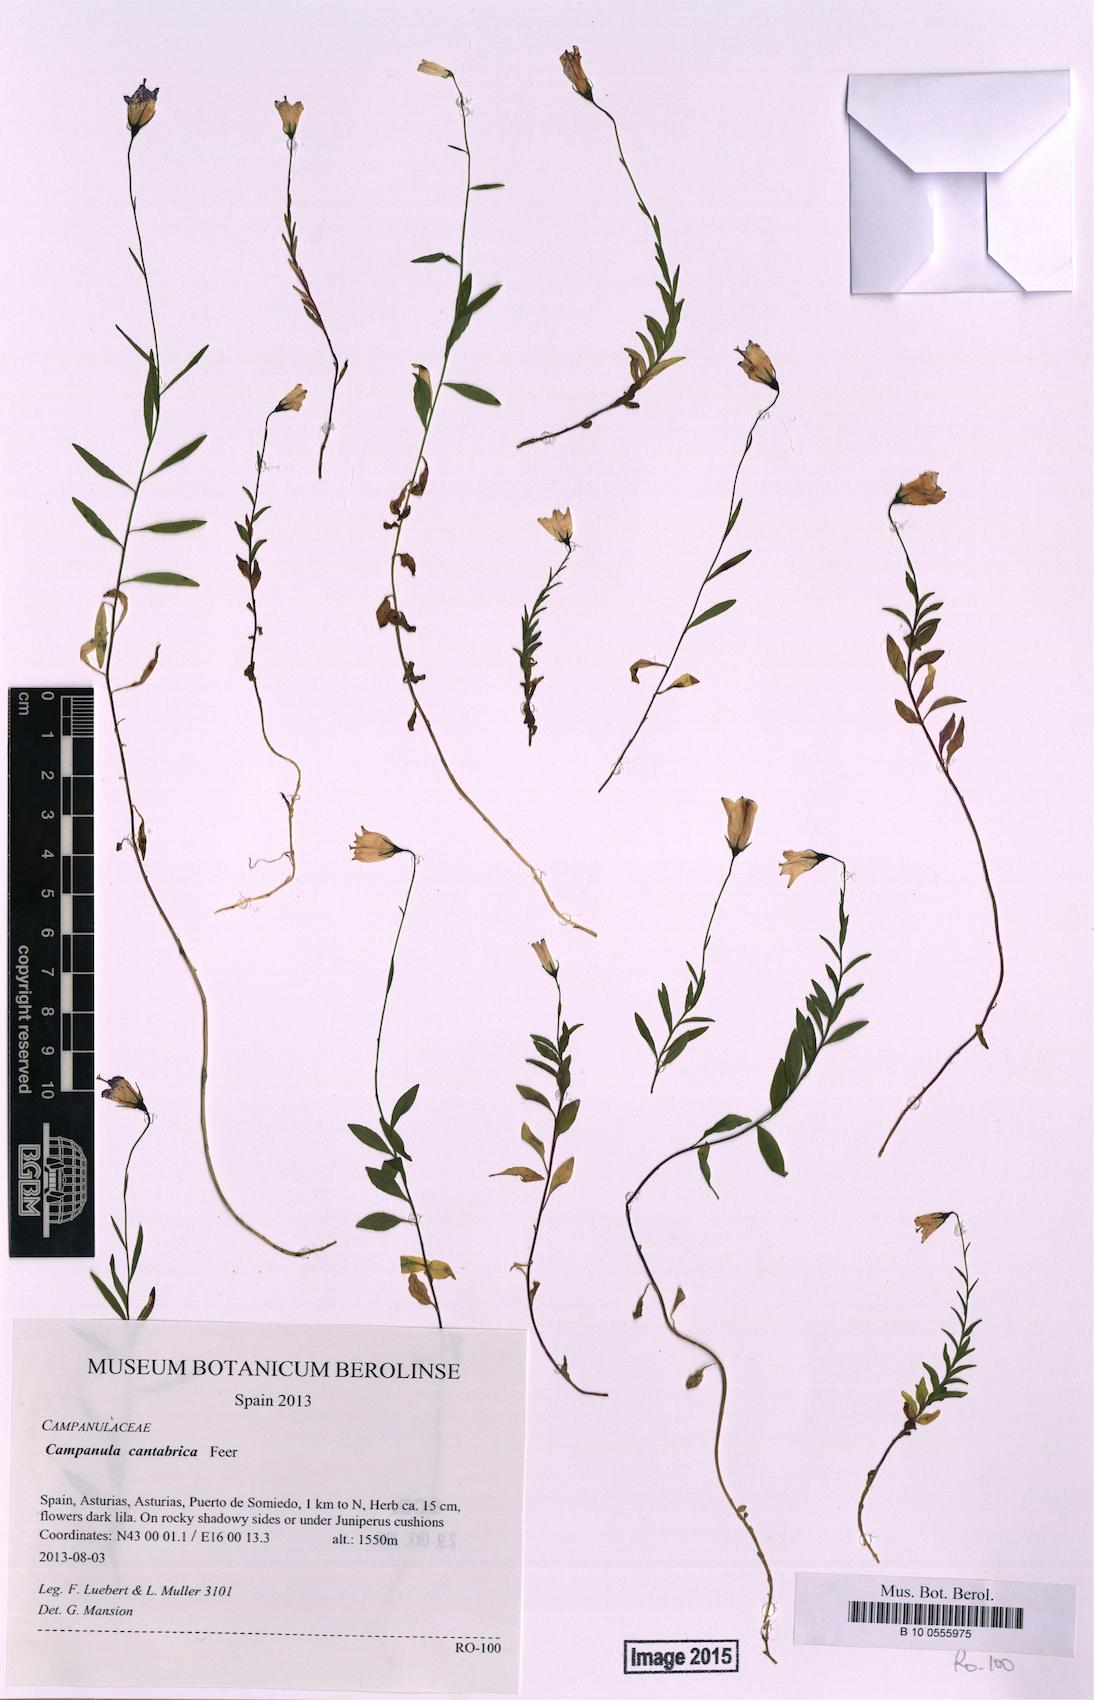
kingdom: Plantae
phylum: Tracheophyta
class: Magnoliopsida
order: Asterales
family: Campanulaceae
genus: Campanula
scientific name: Campanula cantabrica
